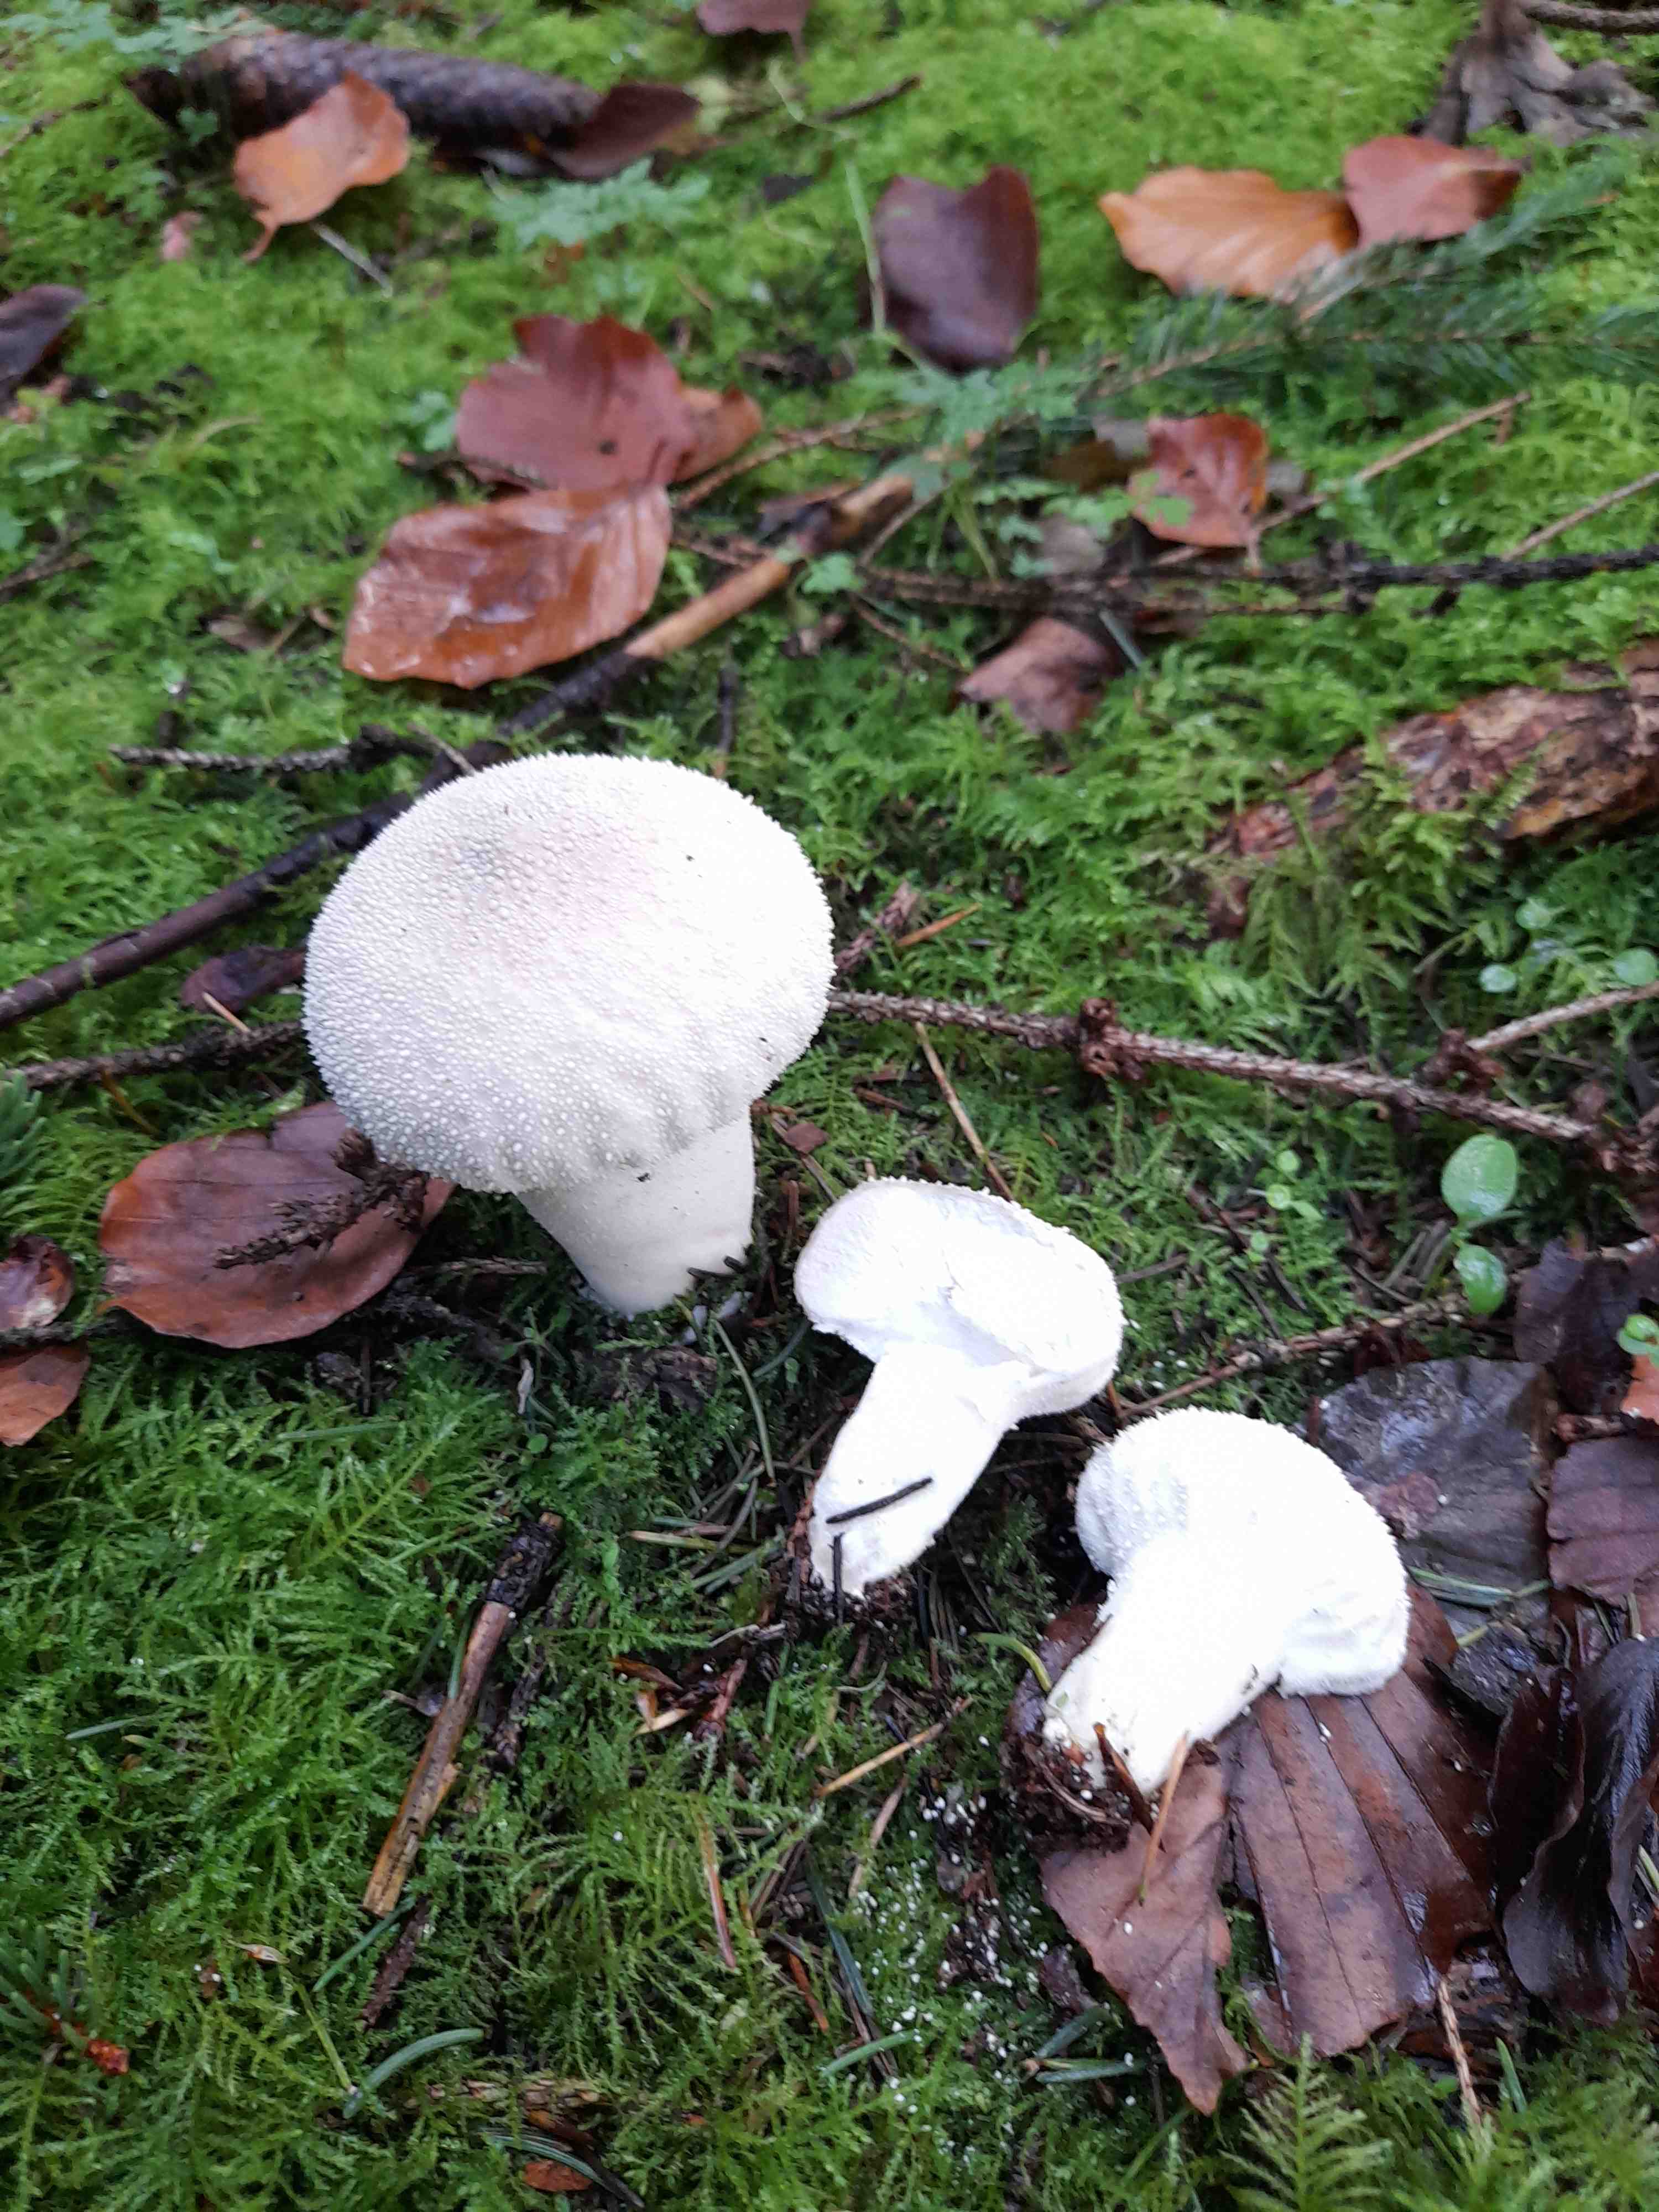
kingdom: Fungi
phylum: Basidiomycota
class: Agaricomycetes
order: Agaricales
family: Lycoperdaceae
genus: Lycoperdon
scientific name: Lycoperdon perlatum
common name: krystal-støvbold
